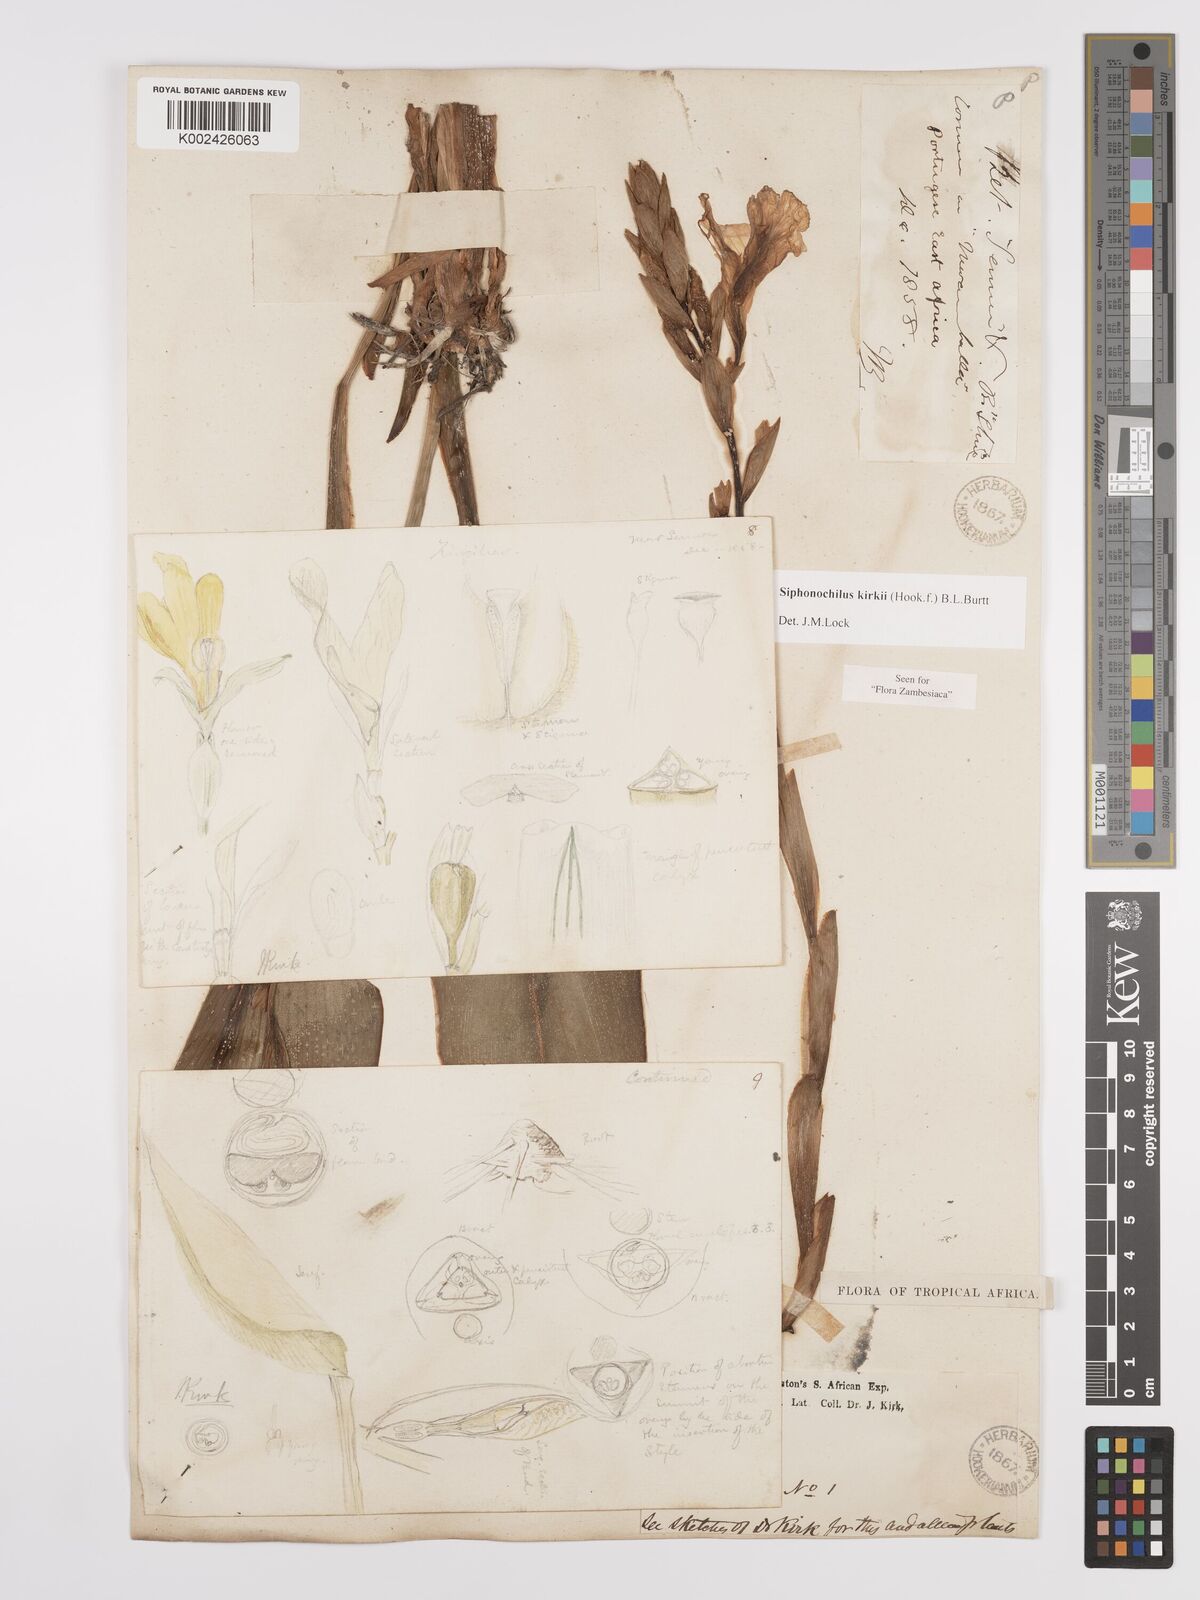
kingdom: Plantae
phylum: Tracheophyta
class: Liliopsida
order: Zingiberales
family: Zingiberaceae
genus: Siphonochilus
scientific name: Siphonochilus kirkii
